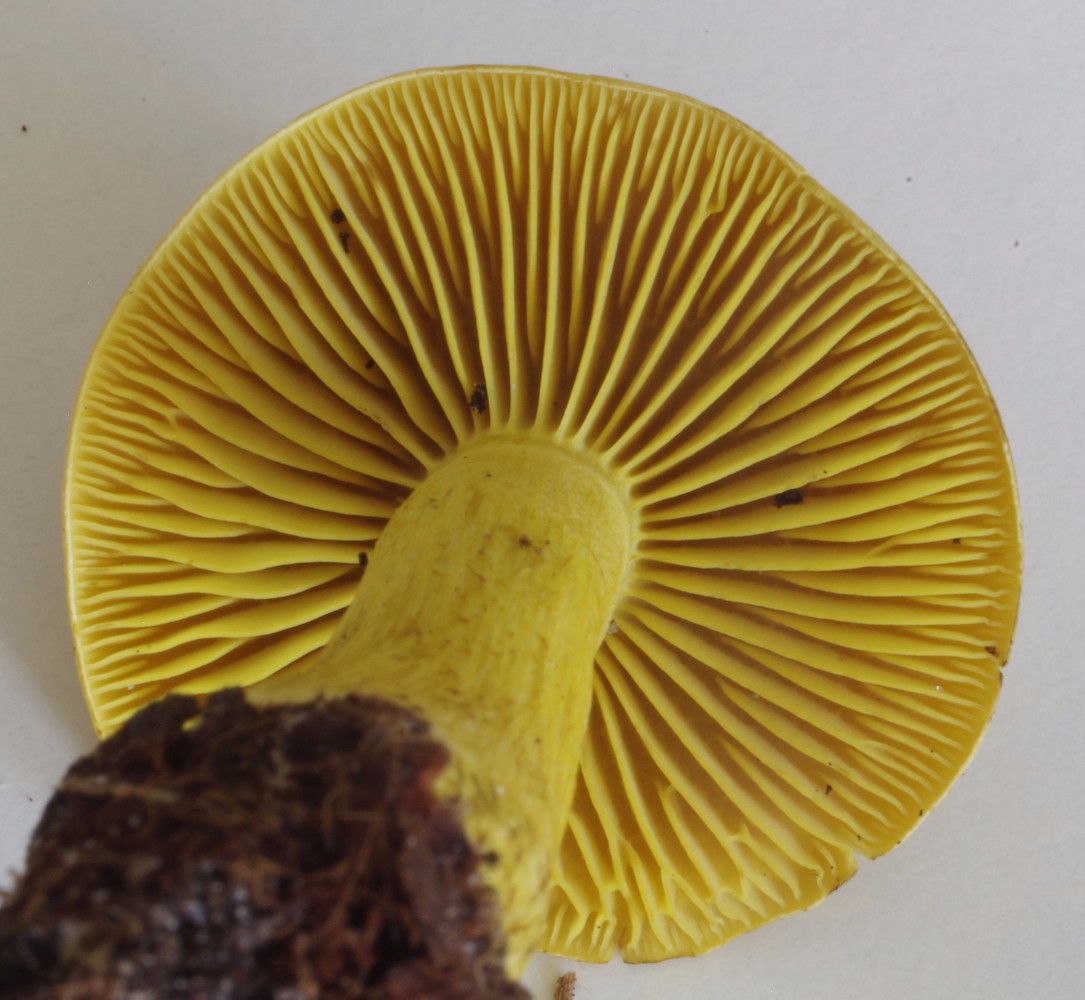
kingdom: Fungi
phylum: Basidiomycota
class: Agaricomycetes
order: Agaricales
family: Tricholomataceae
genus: Tricholoma
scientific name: Tricholoma sulphureum
